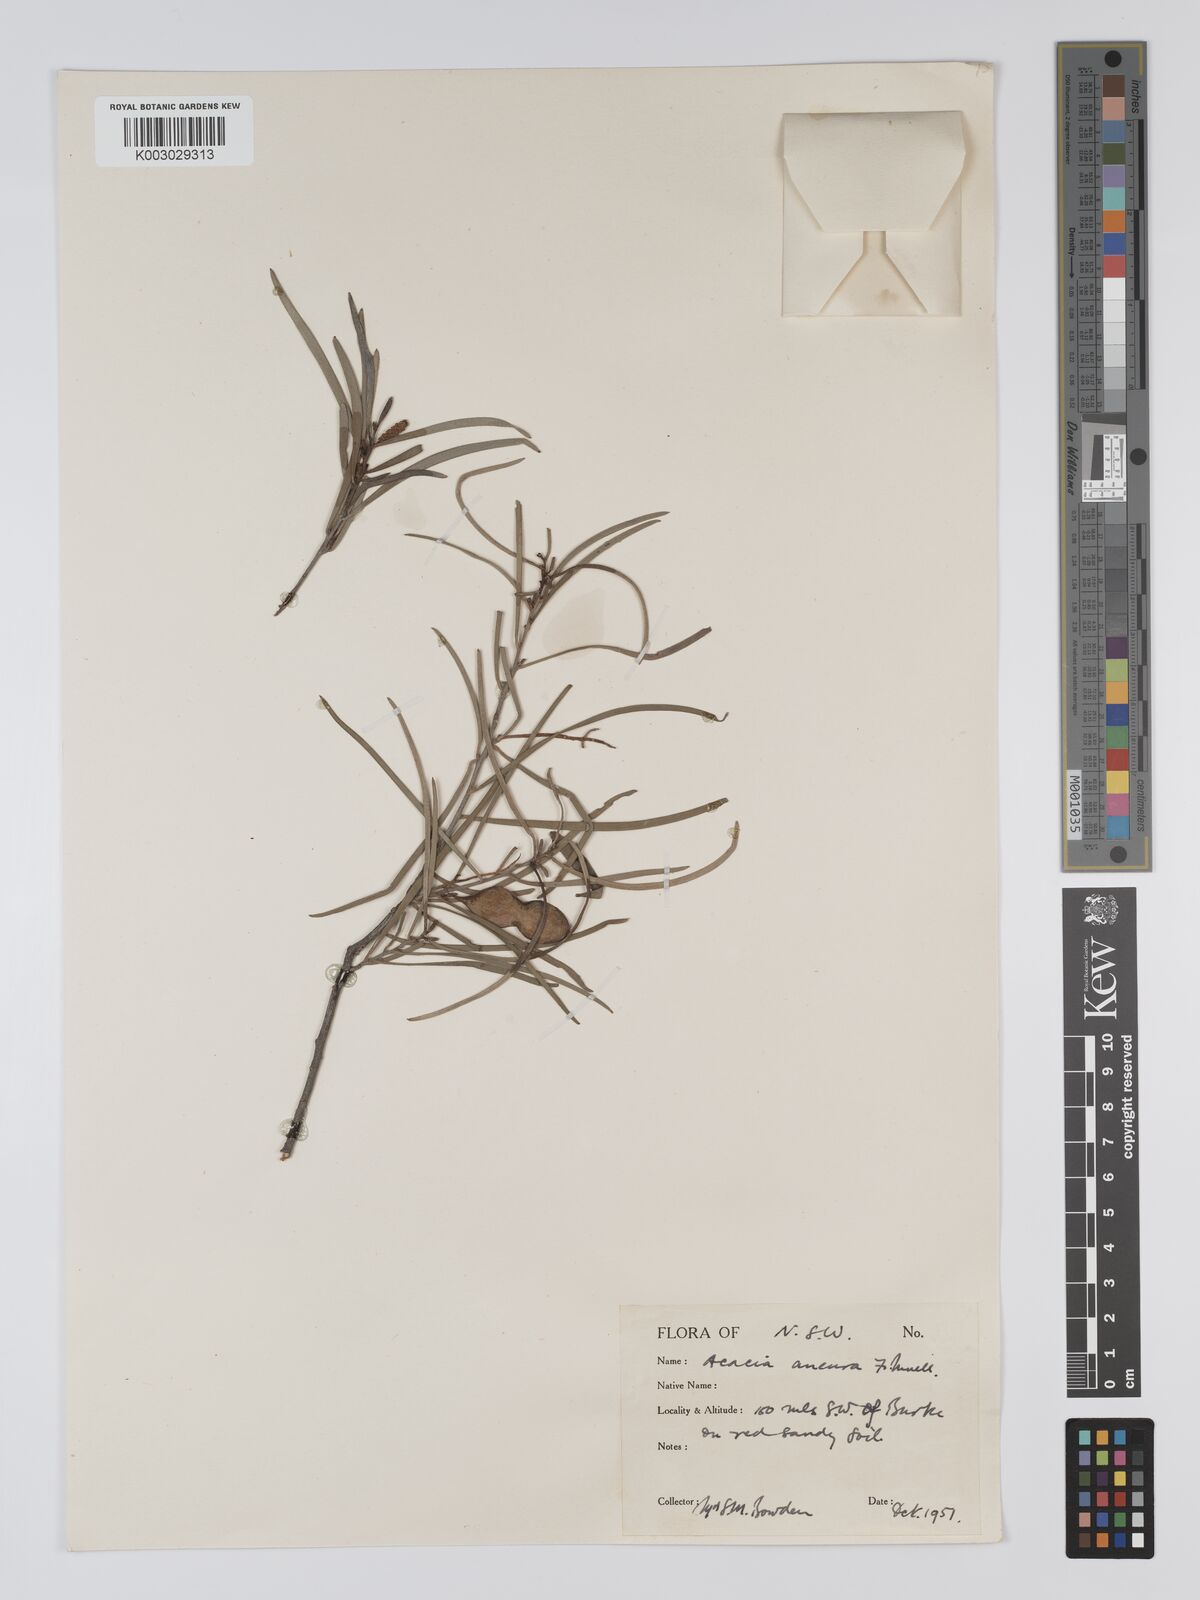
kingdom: Plantae
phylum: Tracheophyta
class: Magnoliopsida
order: Fabales
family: Fabaceae
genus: Acacia
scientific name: Acacia aneura
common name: Mulga
